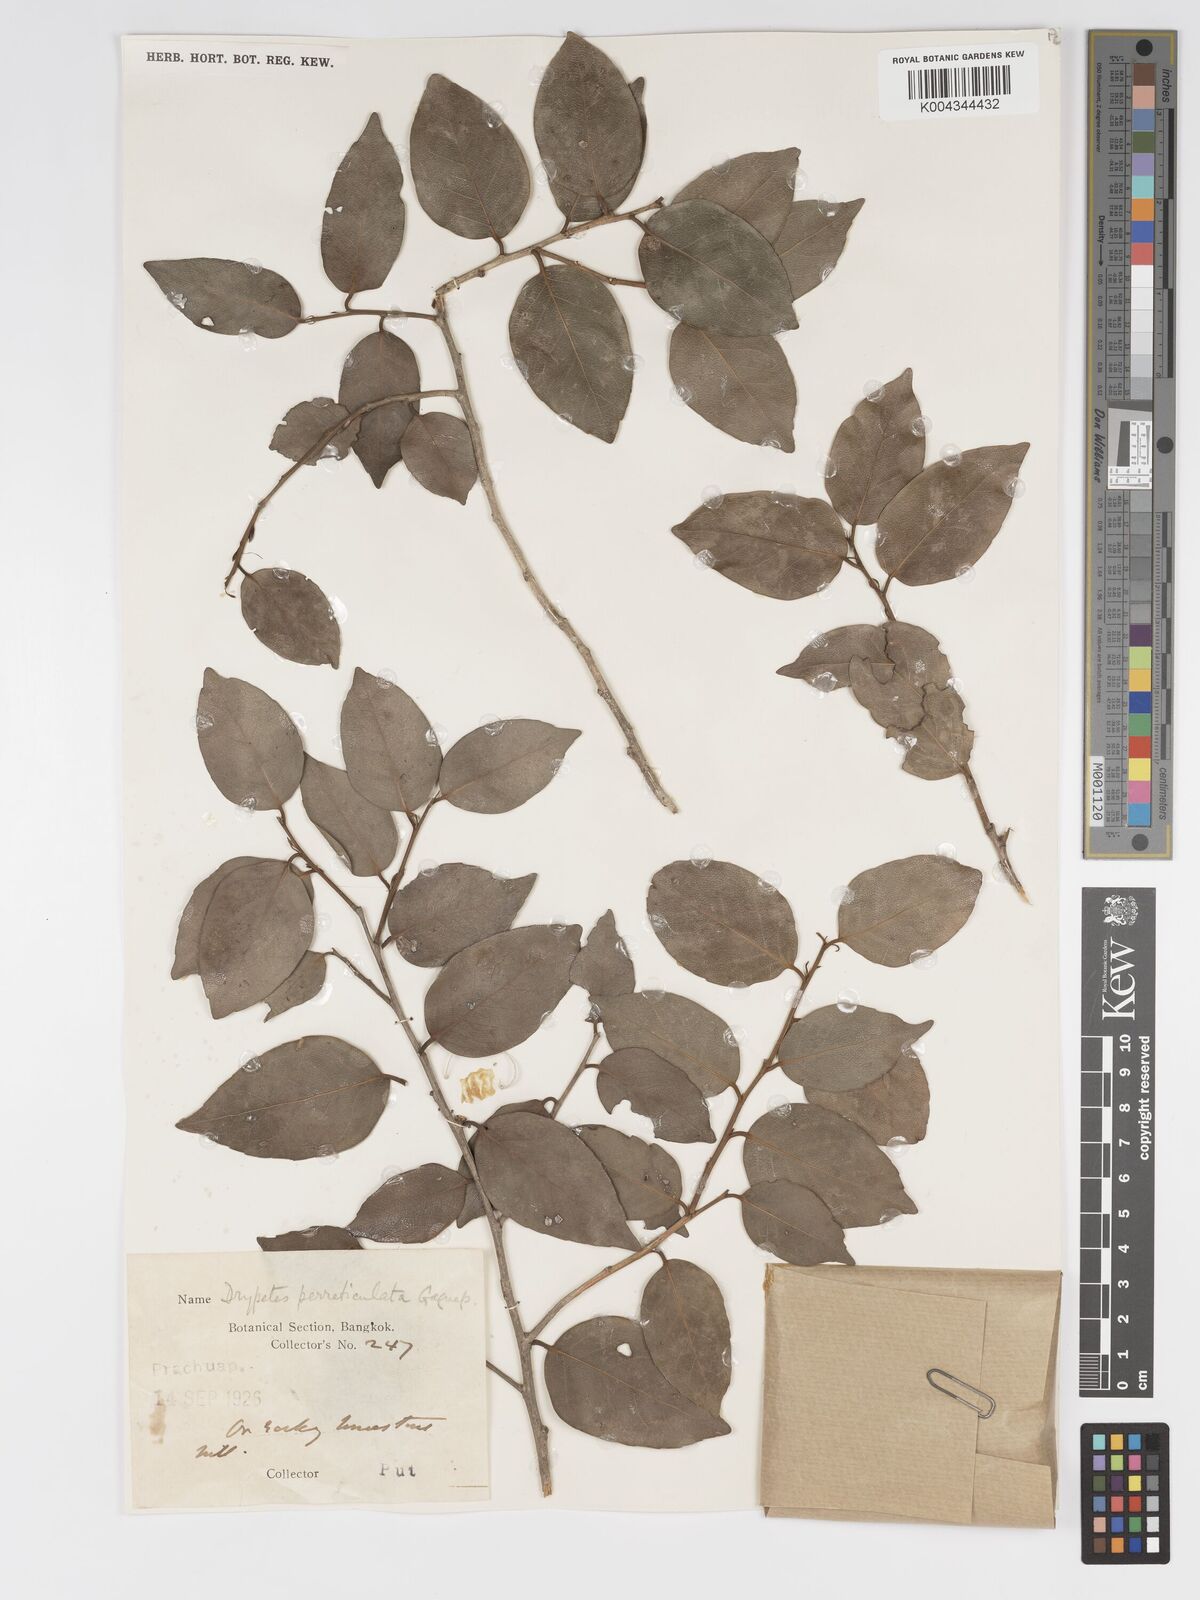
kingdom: Plantae
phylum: Tracheophyta
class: Magnoliopsida
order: Malpighiales
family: Putranjivaceae
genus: Drypetes
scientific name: Drypetes perreticulata
